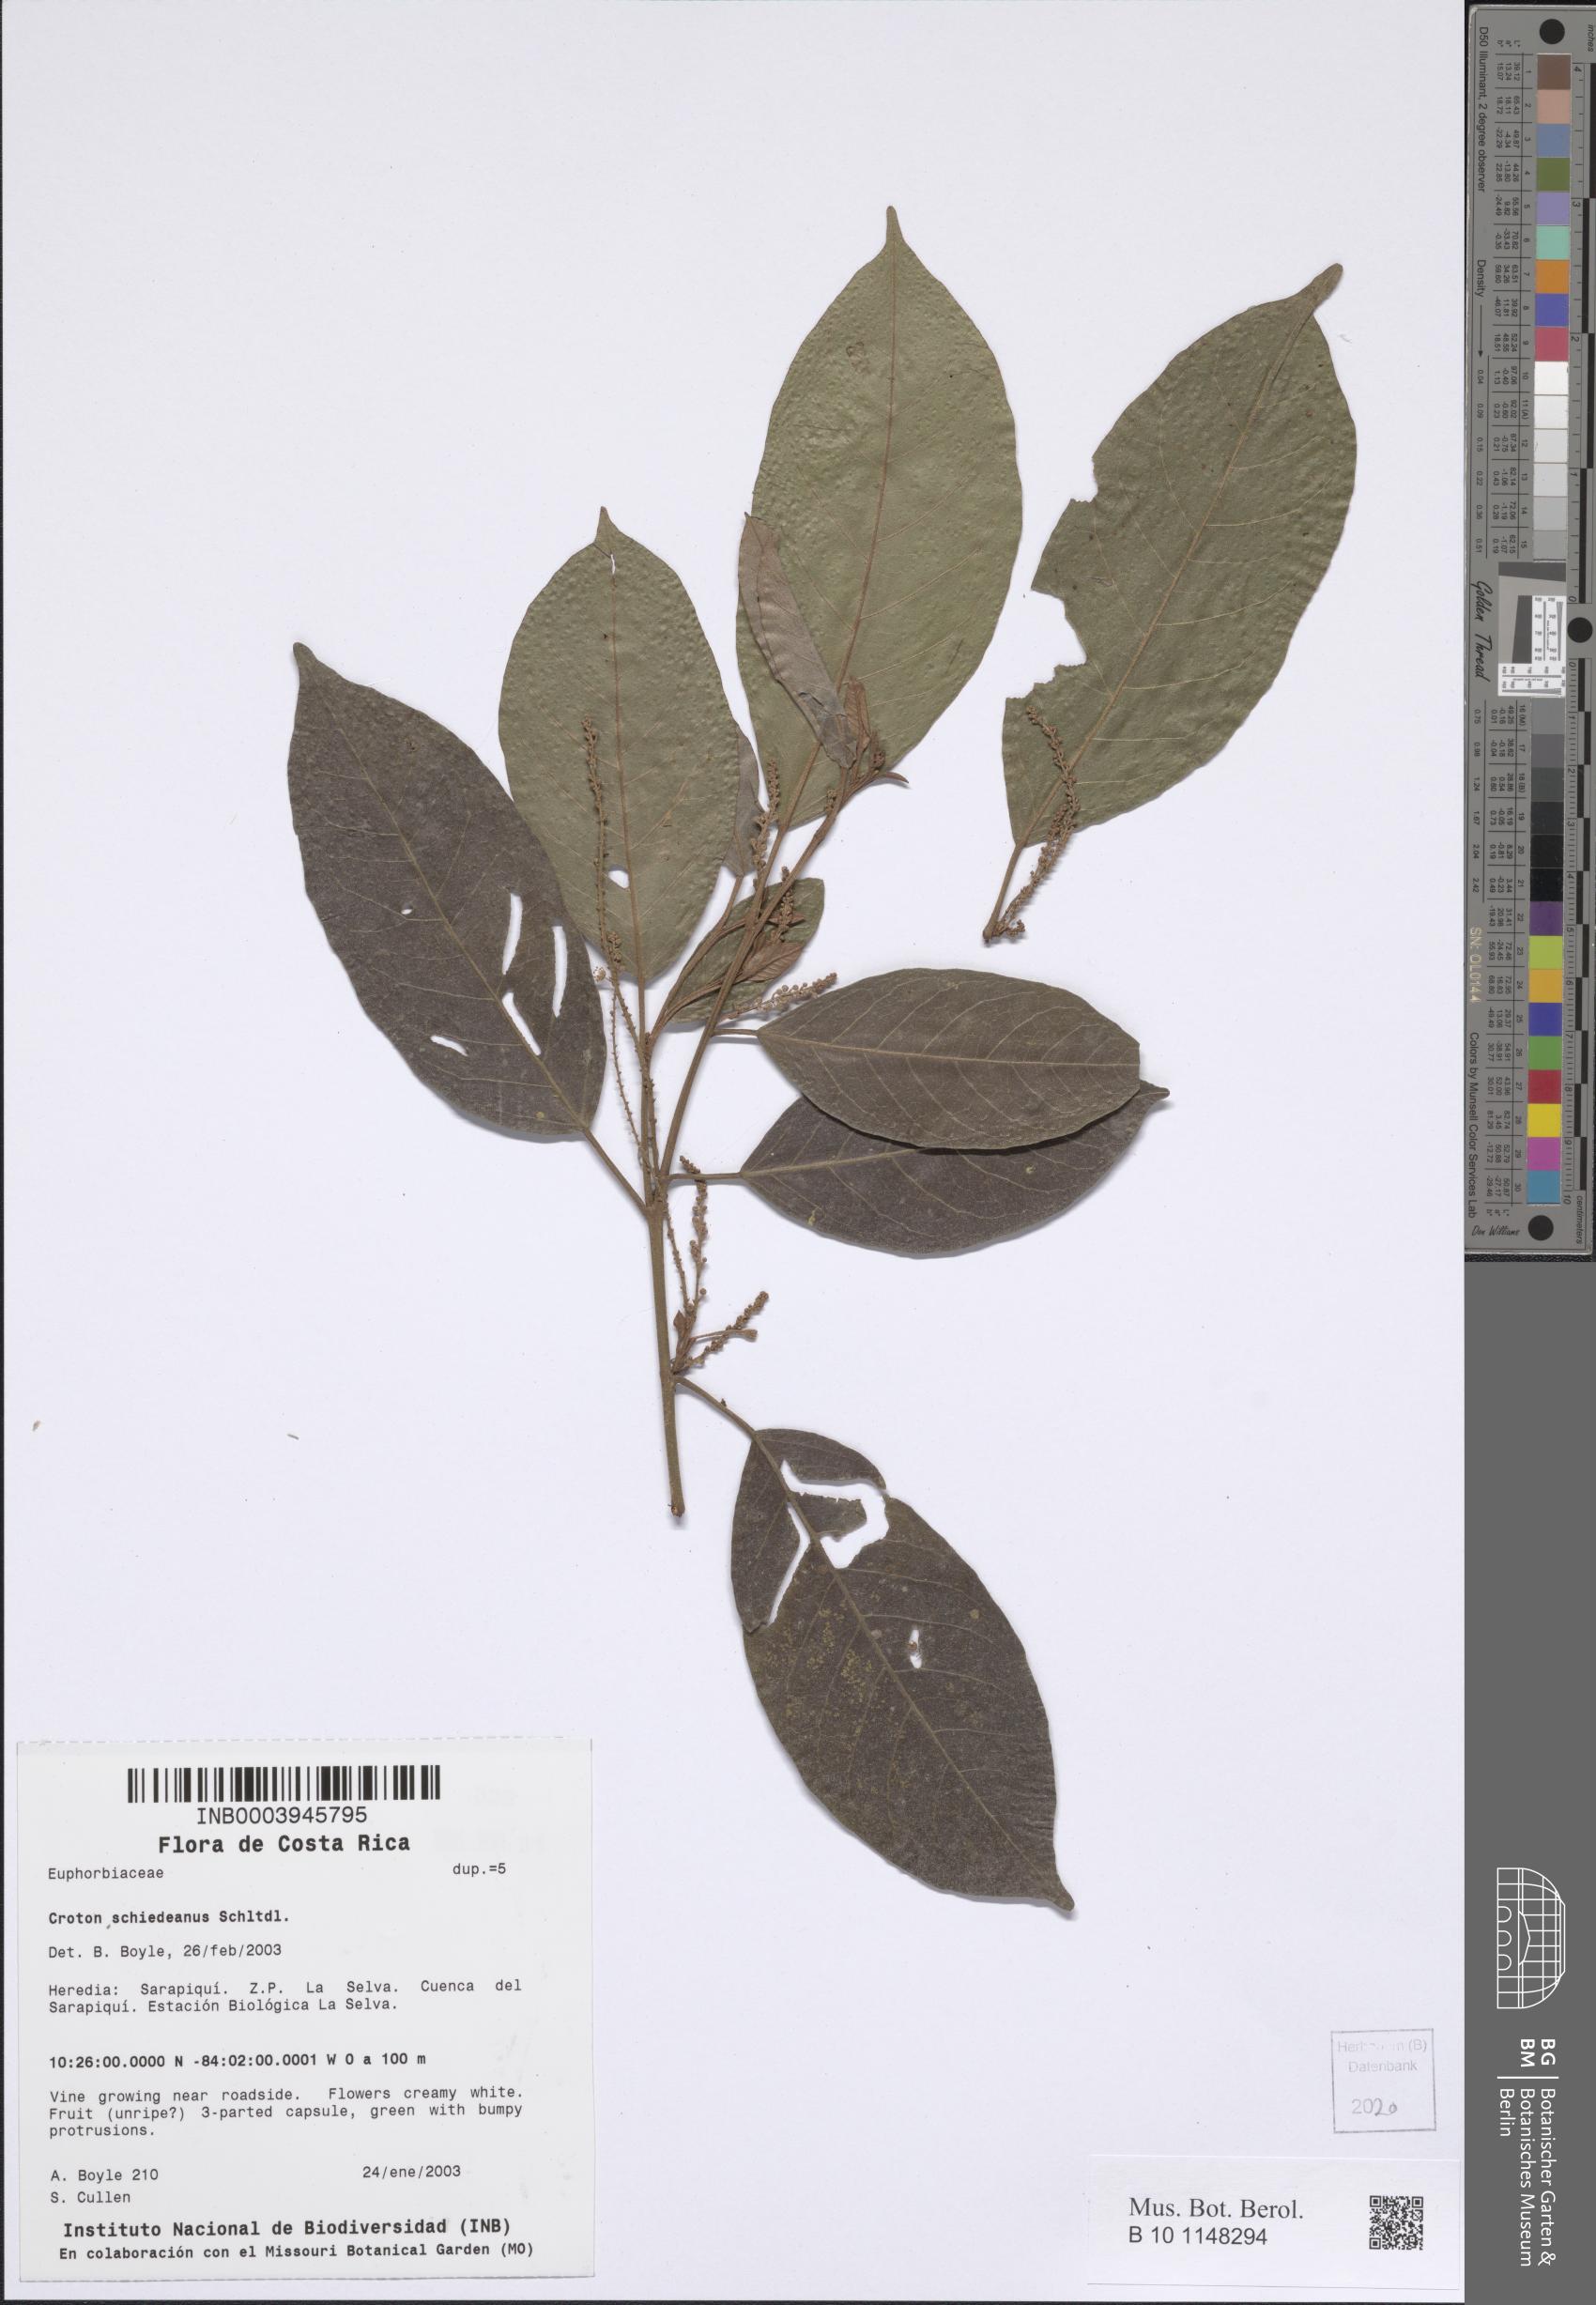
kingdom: Plantae
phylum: Tracheophyta
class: Magnoliopsida
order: Malpighiales
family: Euphorbiaceae
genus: Croton
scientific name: Croton schiedeanus
